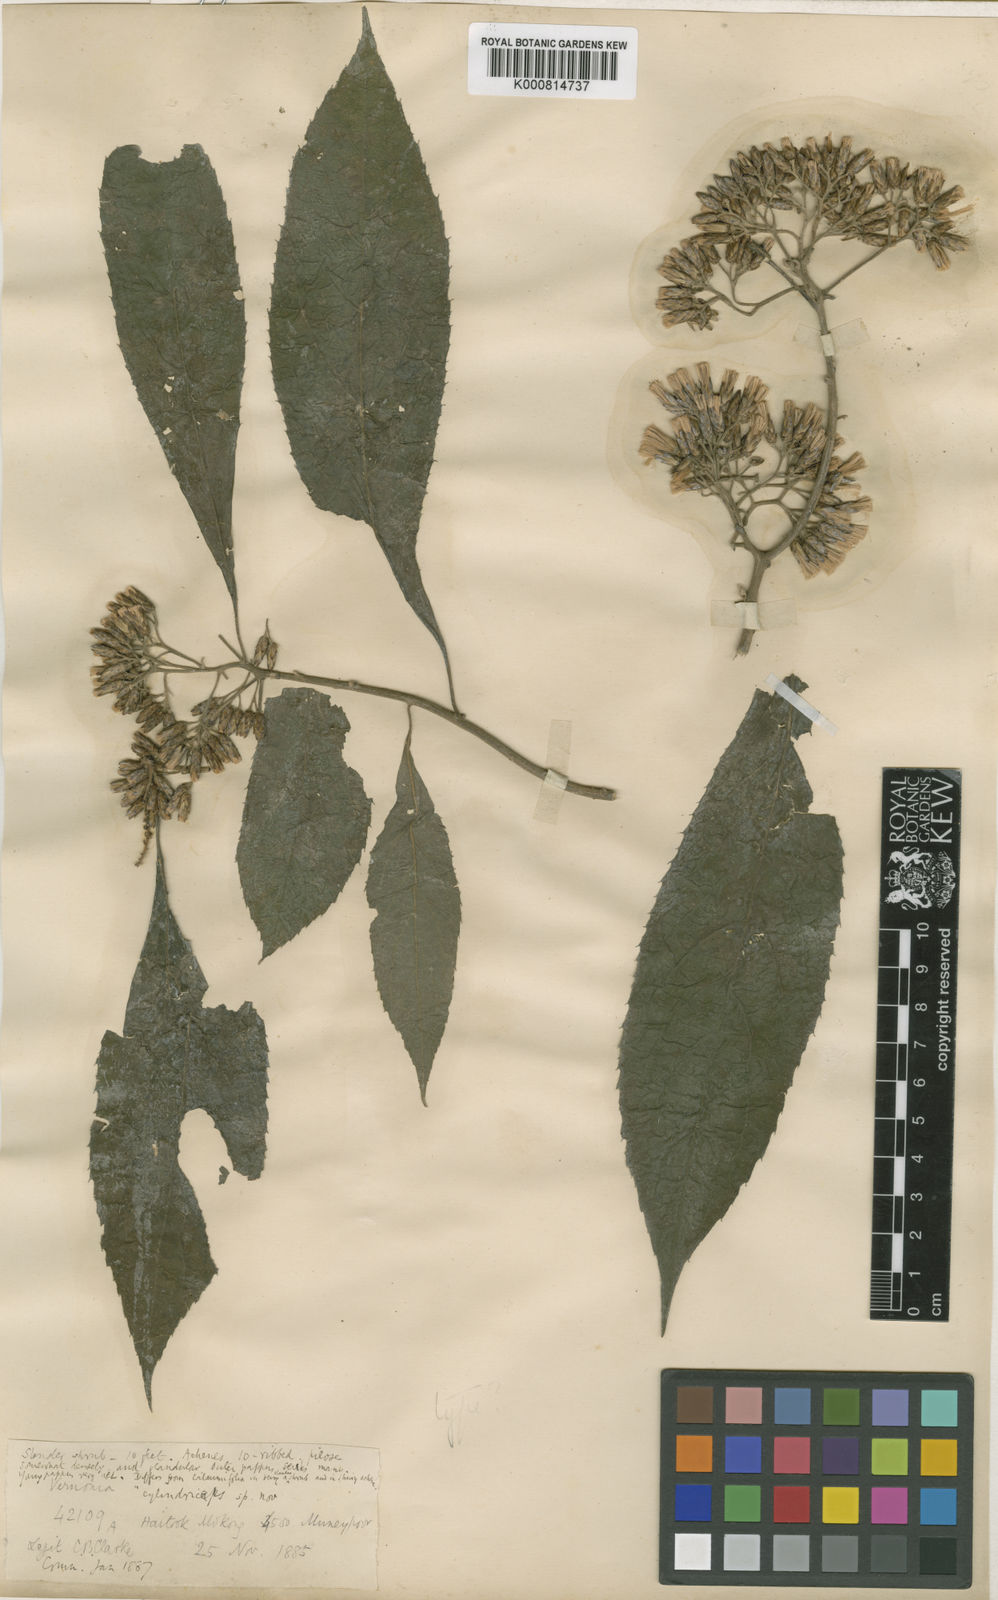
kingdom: Plantae
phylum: Tracheophyta
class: Magnoliopsida
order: Asterales
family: Asteraceae
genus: Gymnanthemum
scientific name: Gymnanthemum extensum
